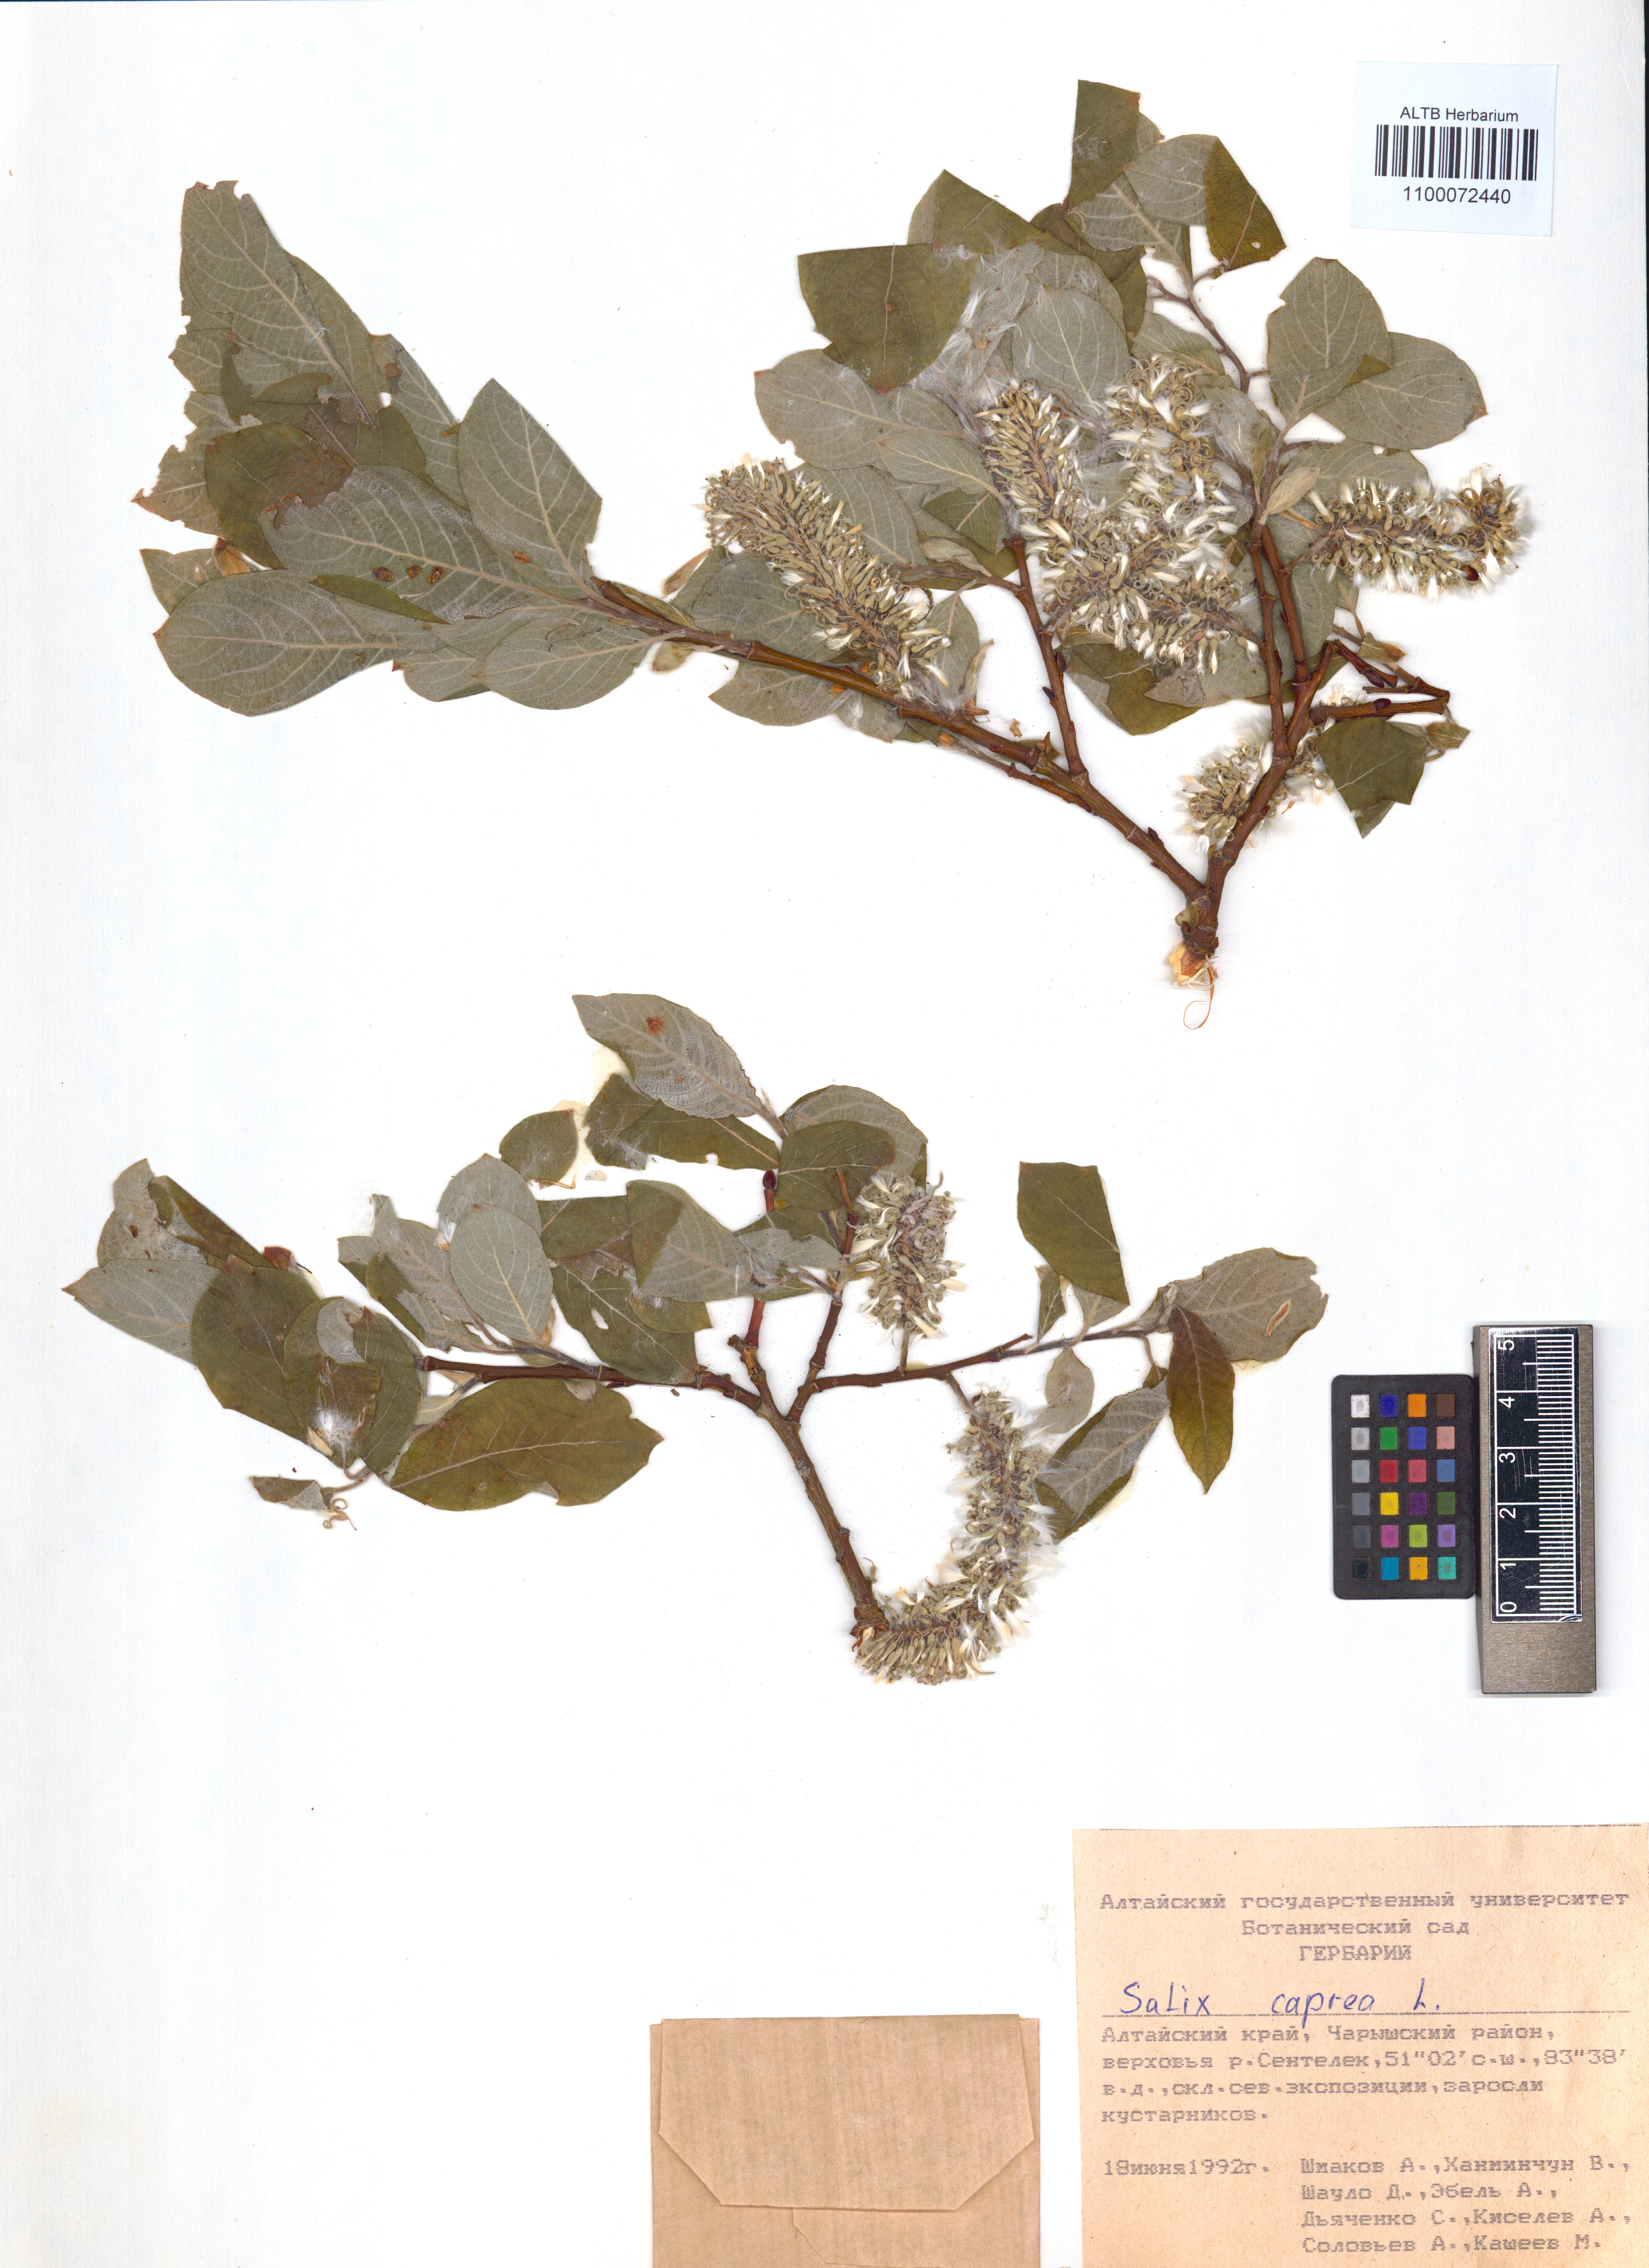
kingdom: Plantae
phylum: Tracheophyta
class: Magnoliopsida
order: Malpighiales
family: Salicaceae
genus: Salix
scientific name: Salix caprea
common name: Goat willow
